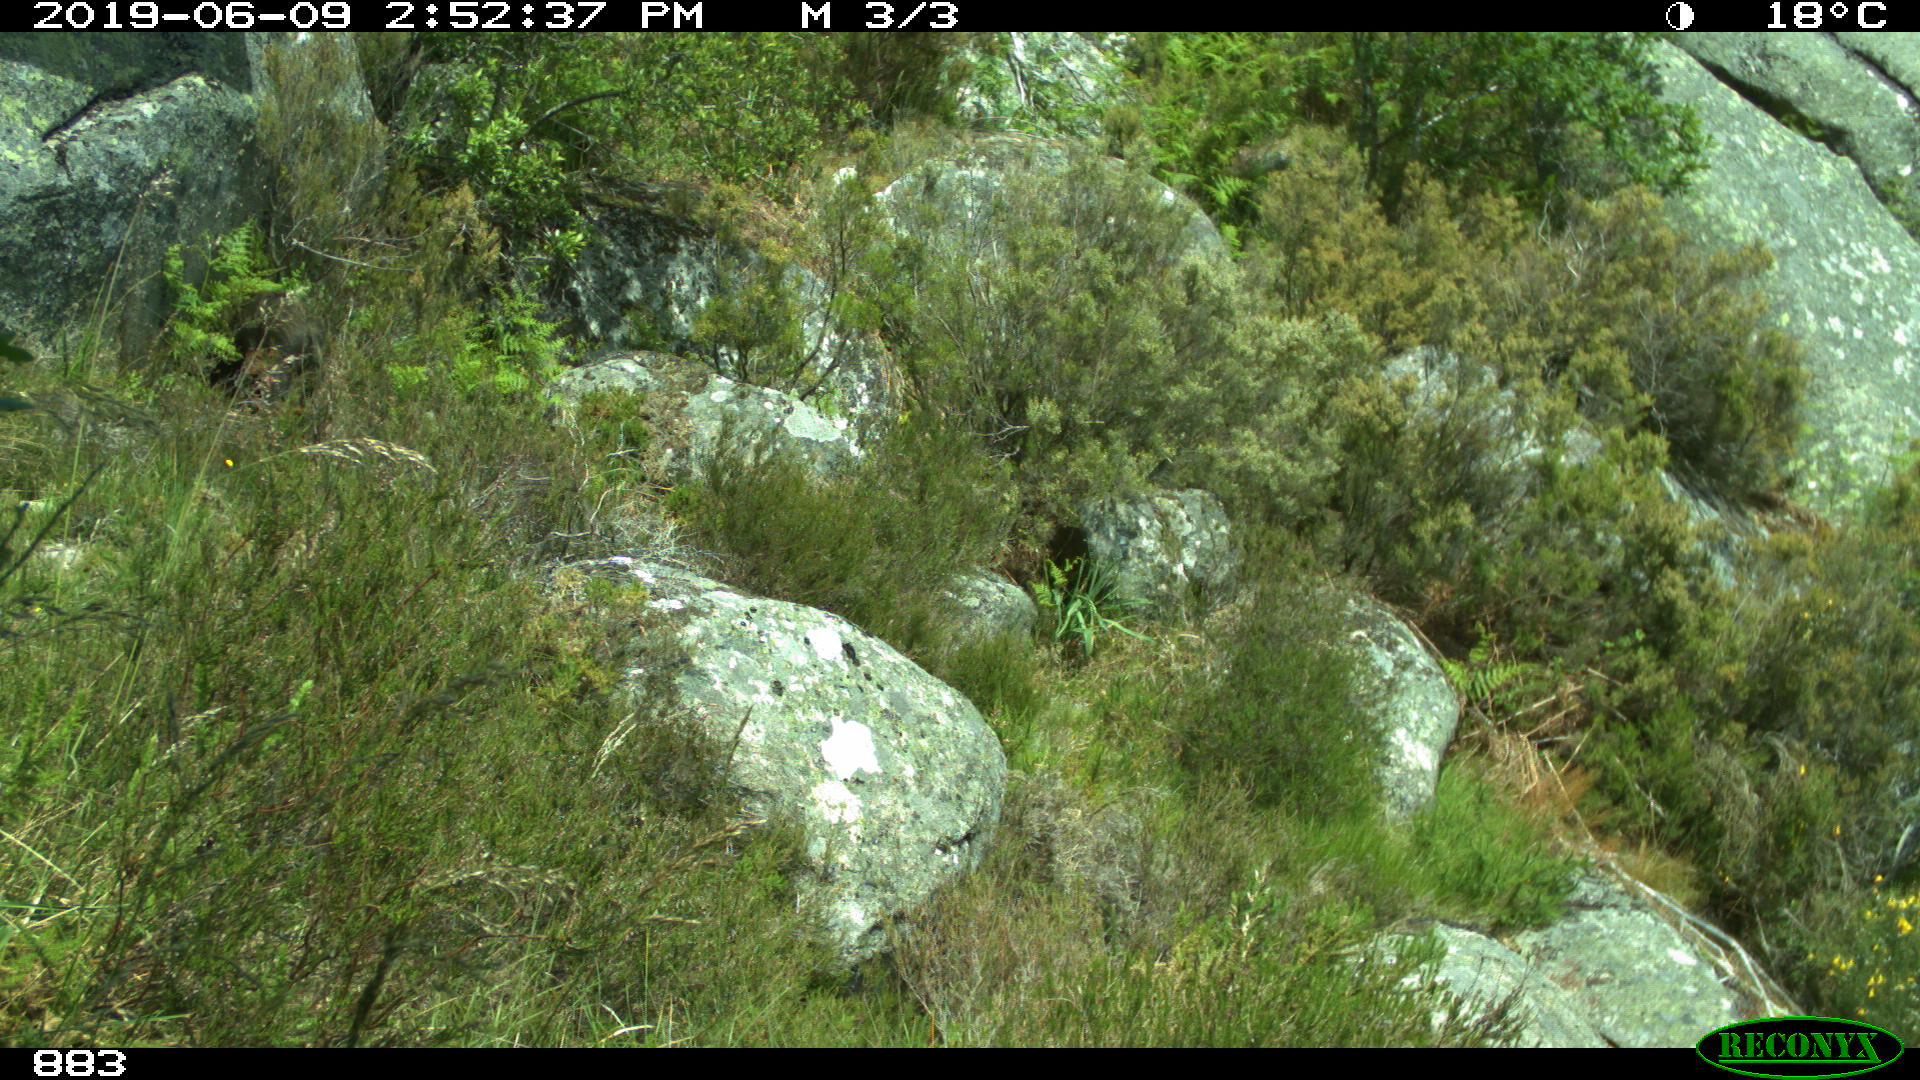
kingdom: Animalia
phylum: Chordata
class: Mammalia
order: Artiodactyla
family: Suidae
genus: Sus
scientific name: Sus scrofa
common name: Wild boar
